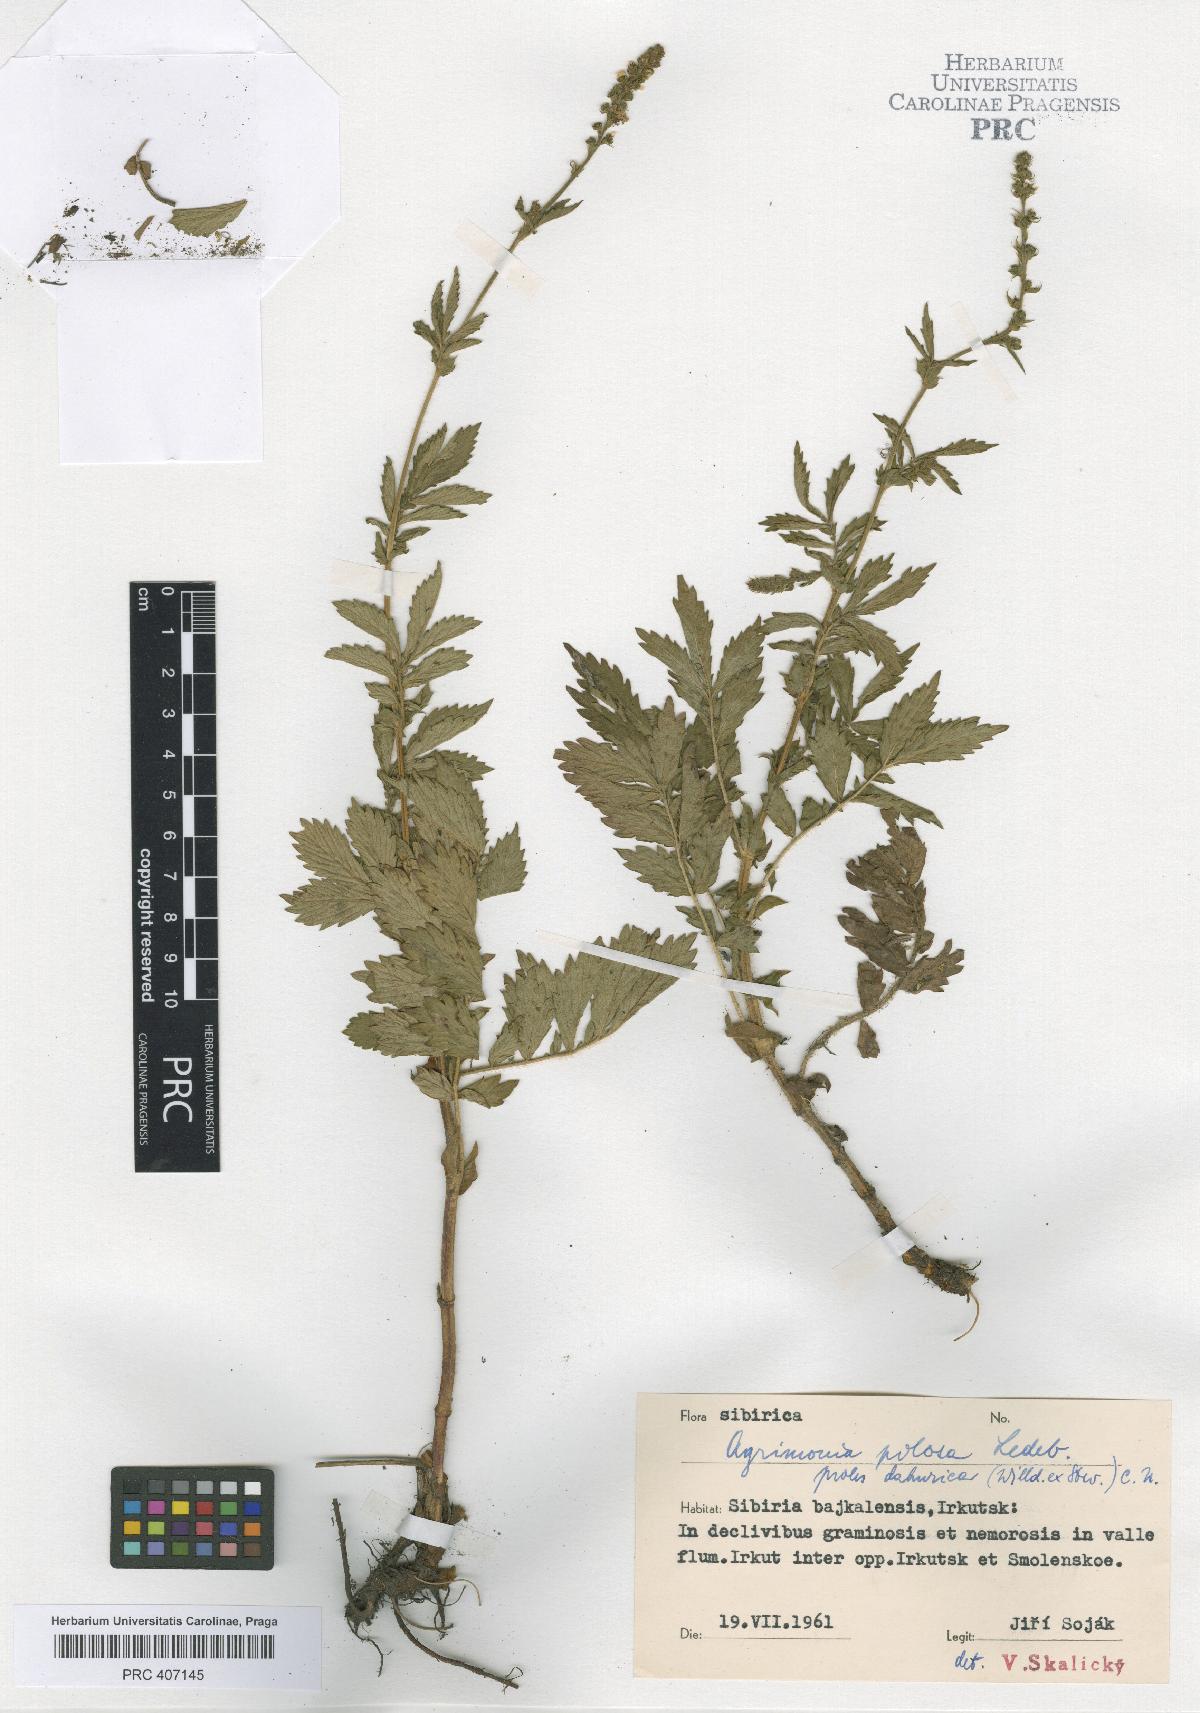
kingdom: Plantae
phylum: Tracheophyta
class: Magnoliopsida
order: Rosales
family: Rosaceae
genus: Agrimonia
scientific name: Agrimonia pilosa
